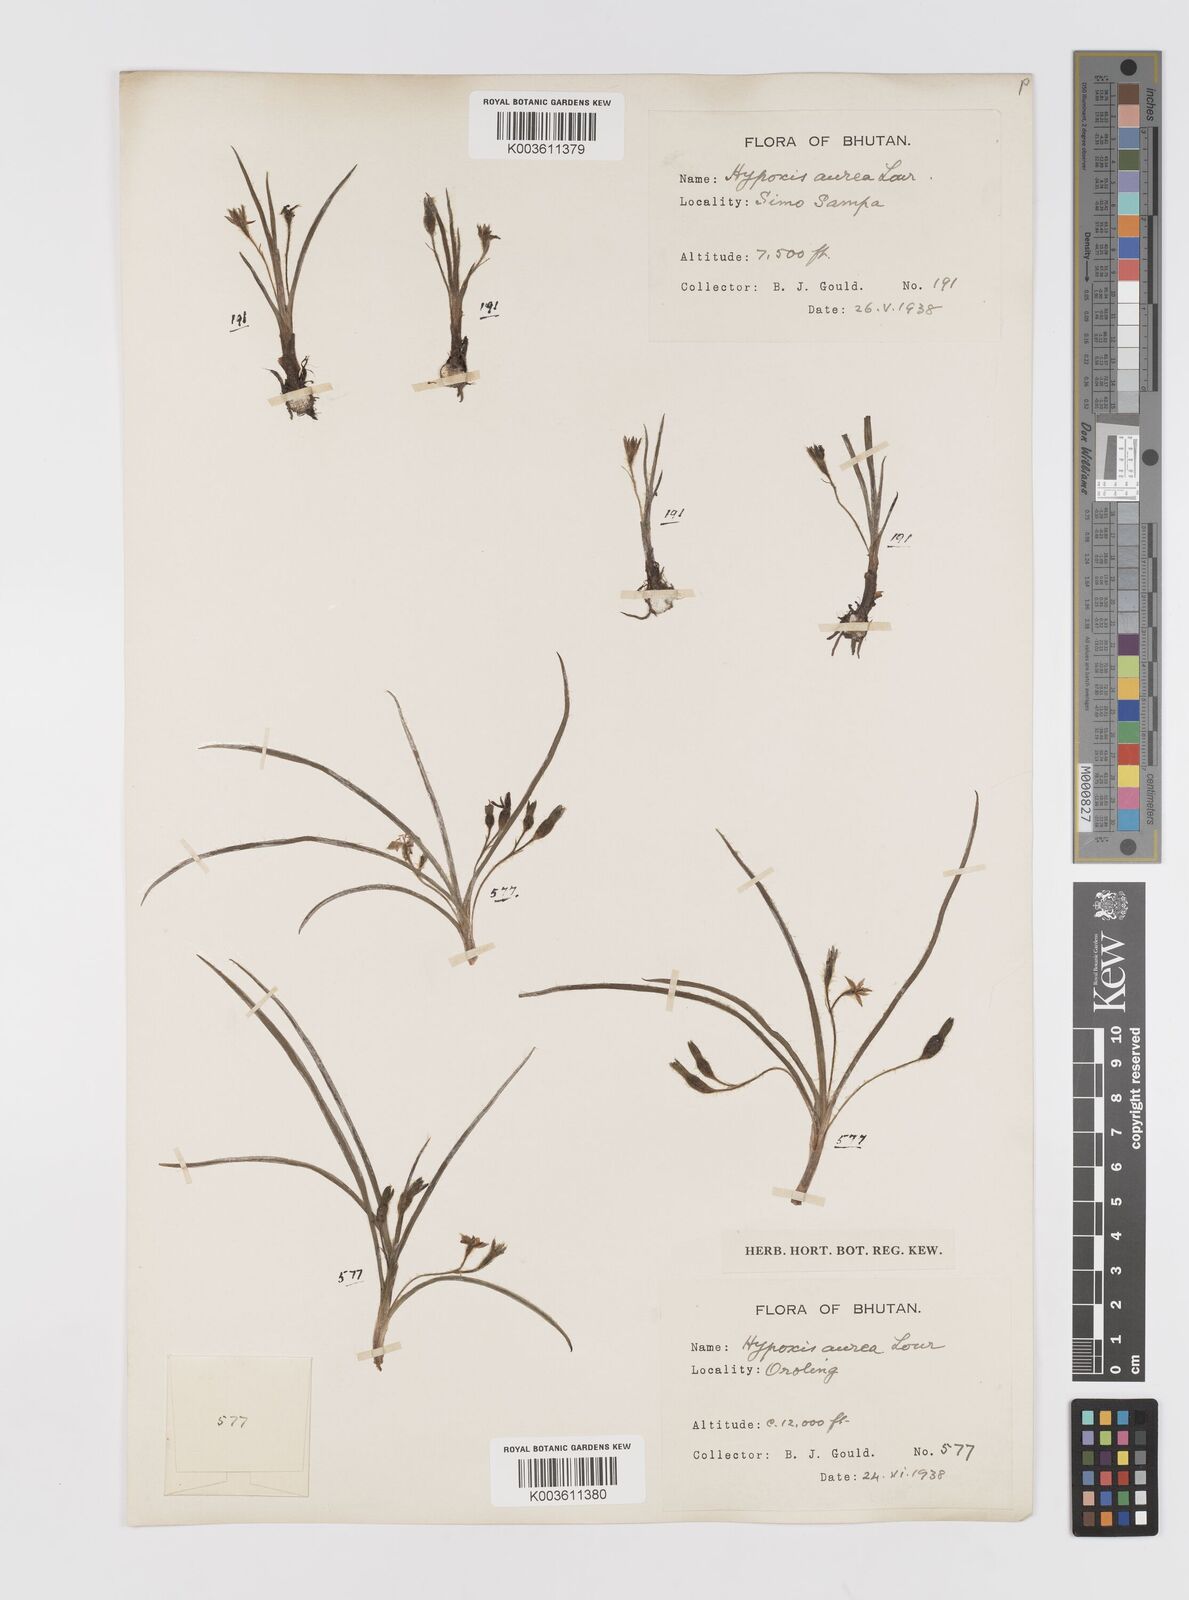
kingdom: Plantae
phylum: Tracheophyta
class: Liliopsida
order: Asparagales
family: Hypoxidaceae
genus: Hypoxis
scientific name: Hypoxis aurea
